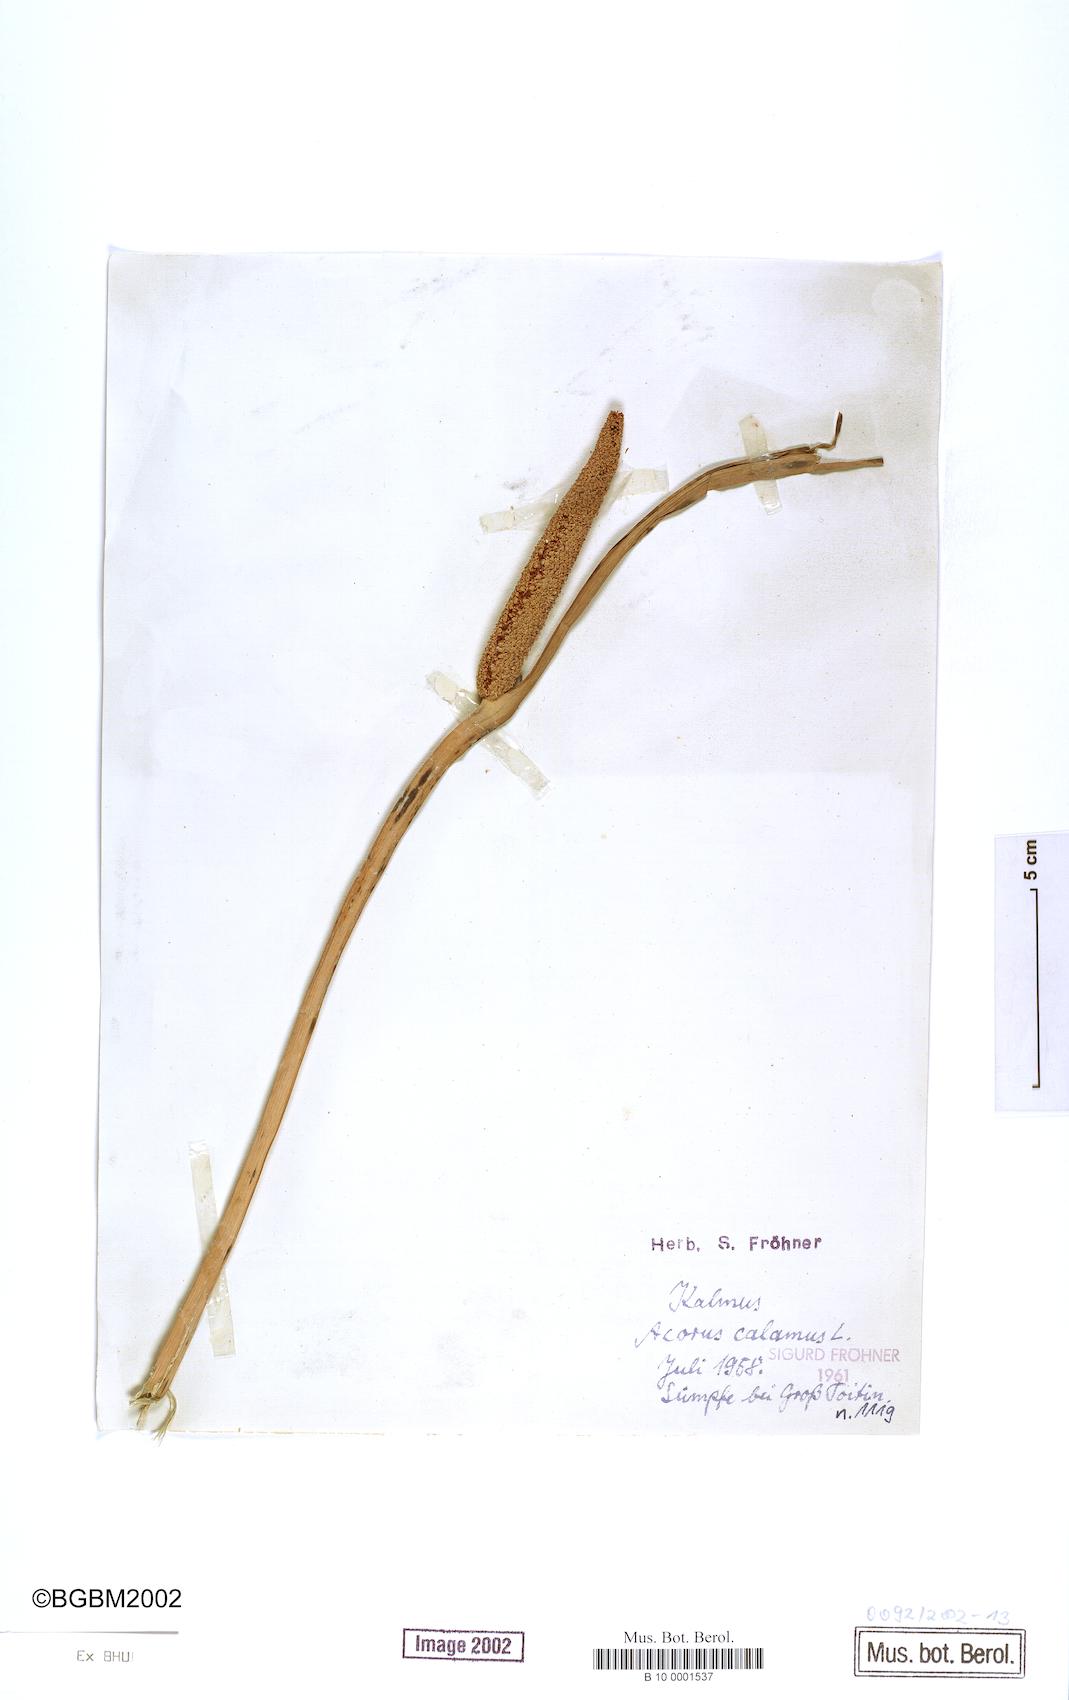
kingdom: Plantae
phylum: Tracheophyta
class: Liliopsida
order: Acorales
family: Acoraceae
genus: Acorus
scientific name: Acorus calamus
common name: Sweet-flag
